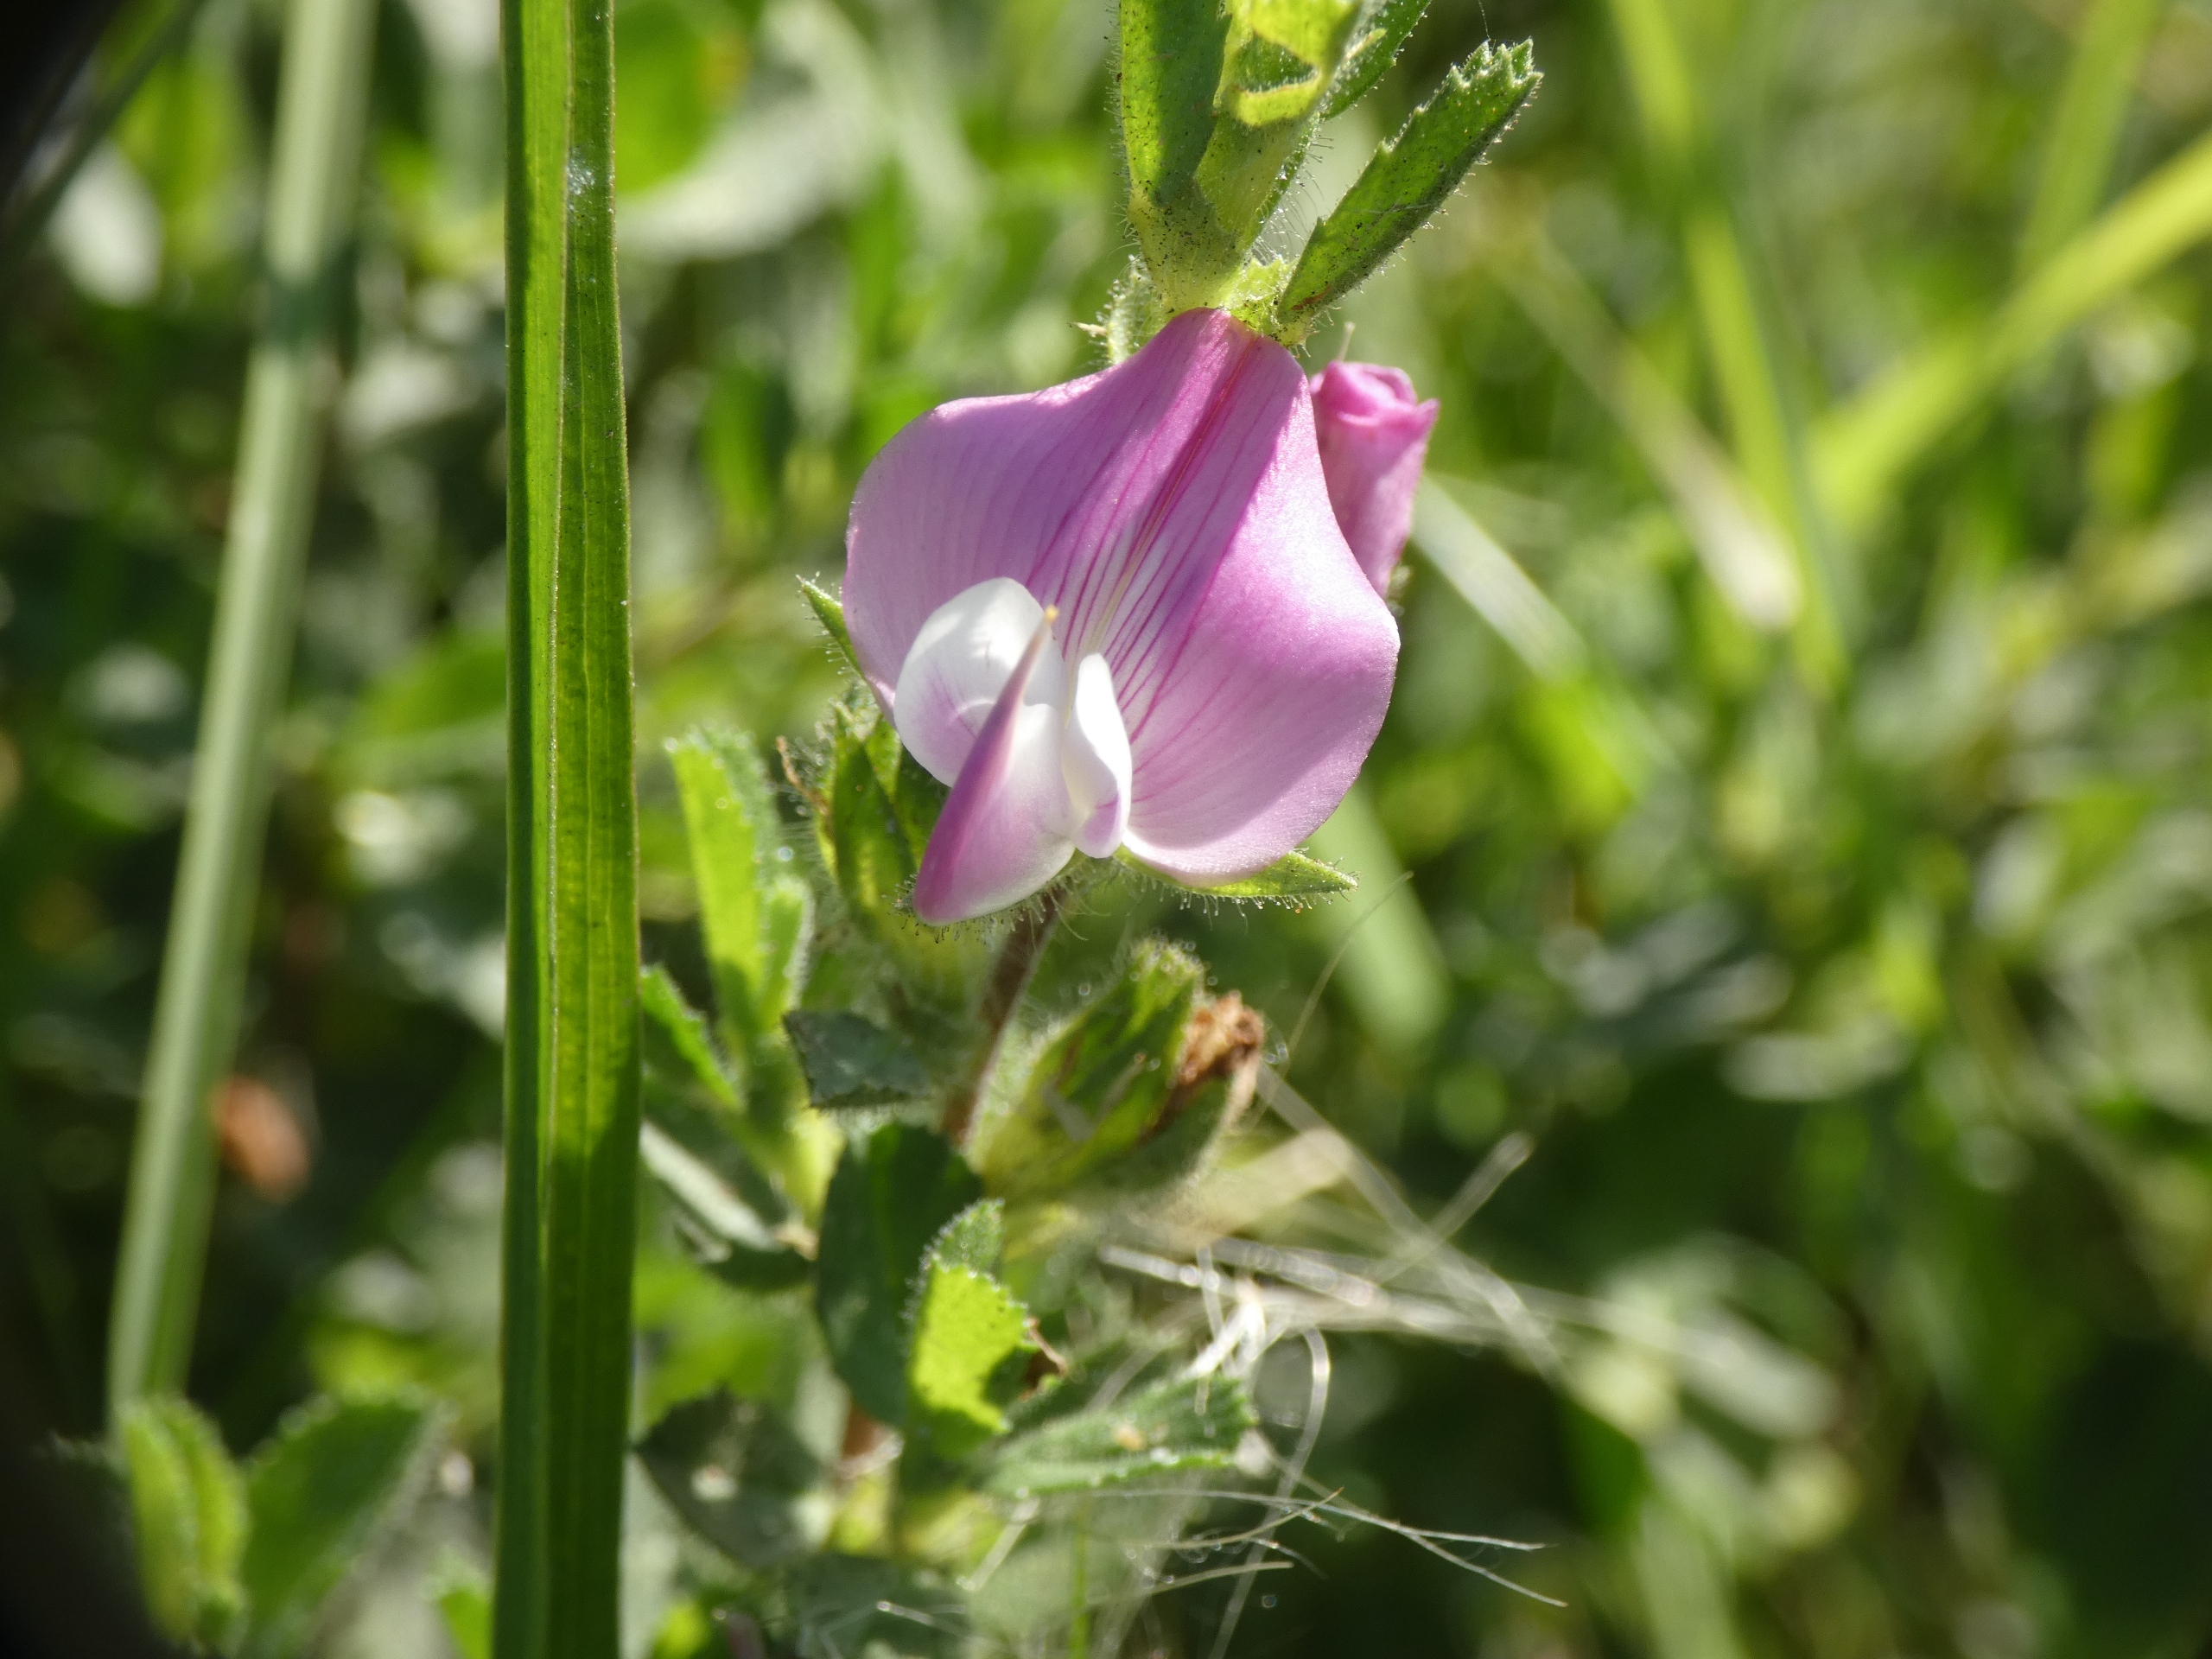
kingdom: Plantae
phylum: Tracheophyta
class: Magnoliopsida
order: Fabales
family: Fabaceae
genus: Ononis
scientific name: Ononis spinosa
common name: Mark-krageklo
